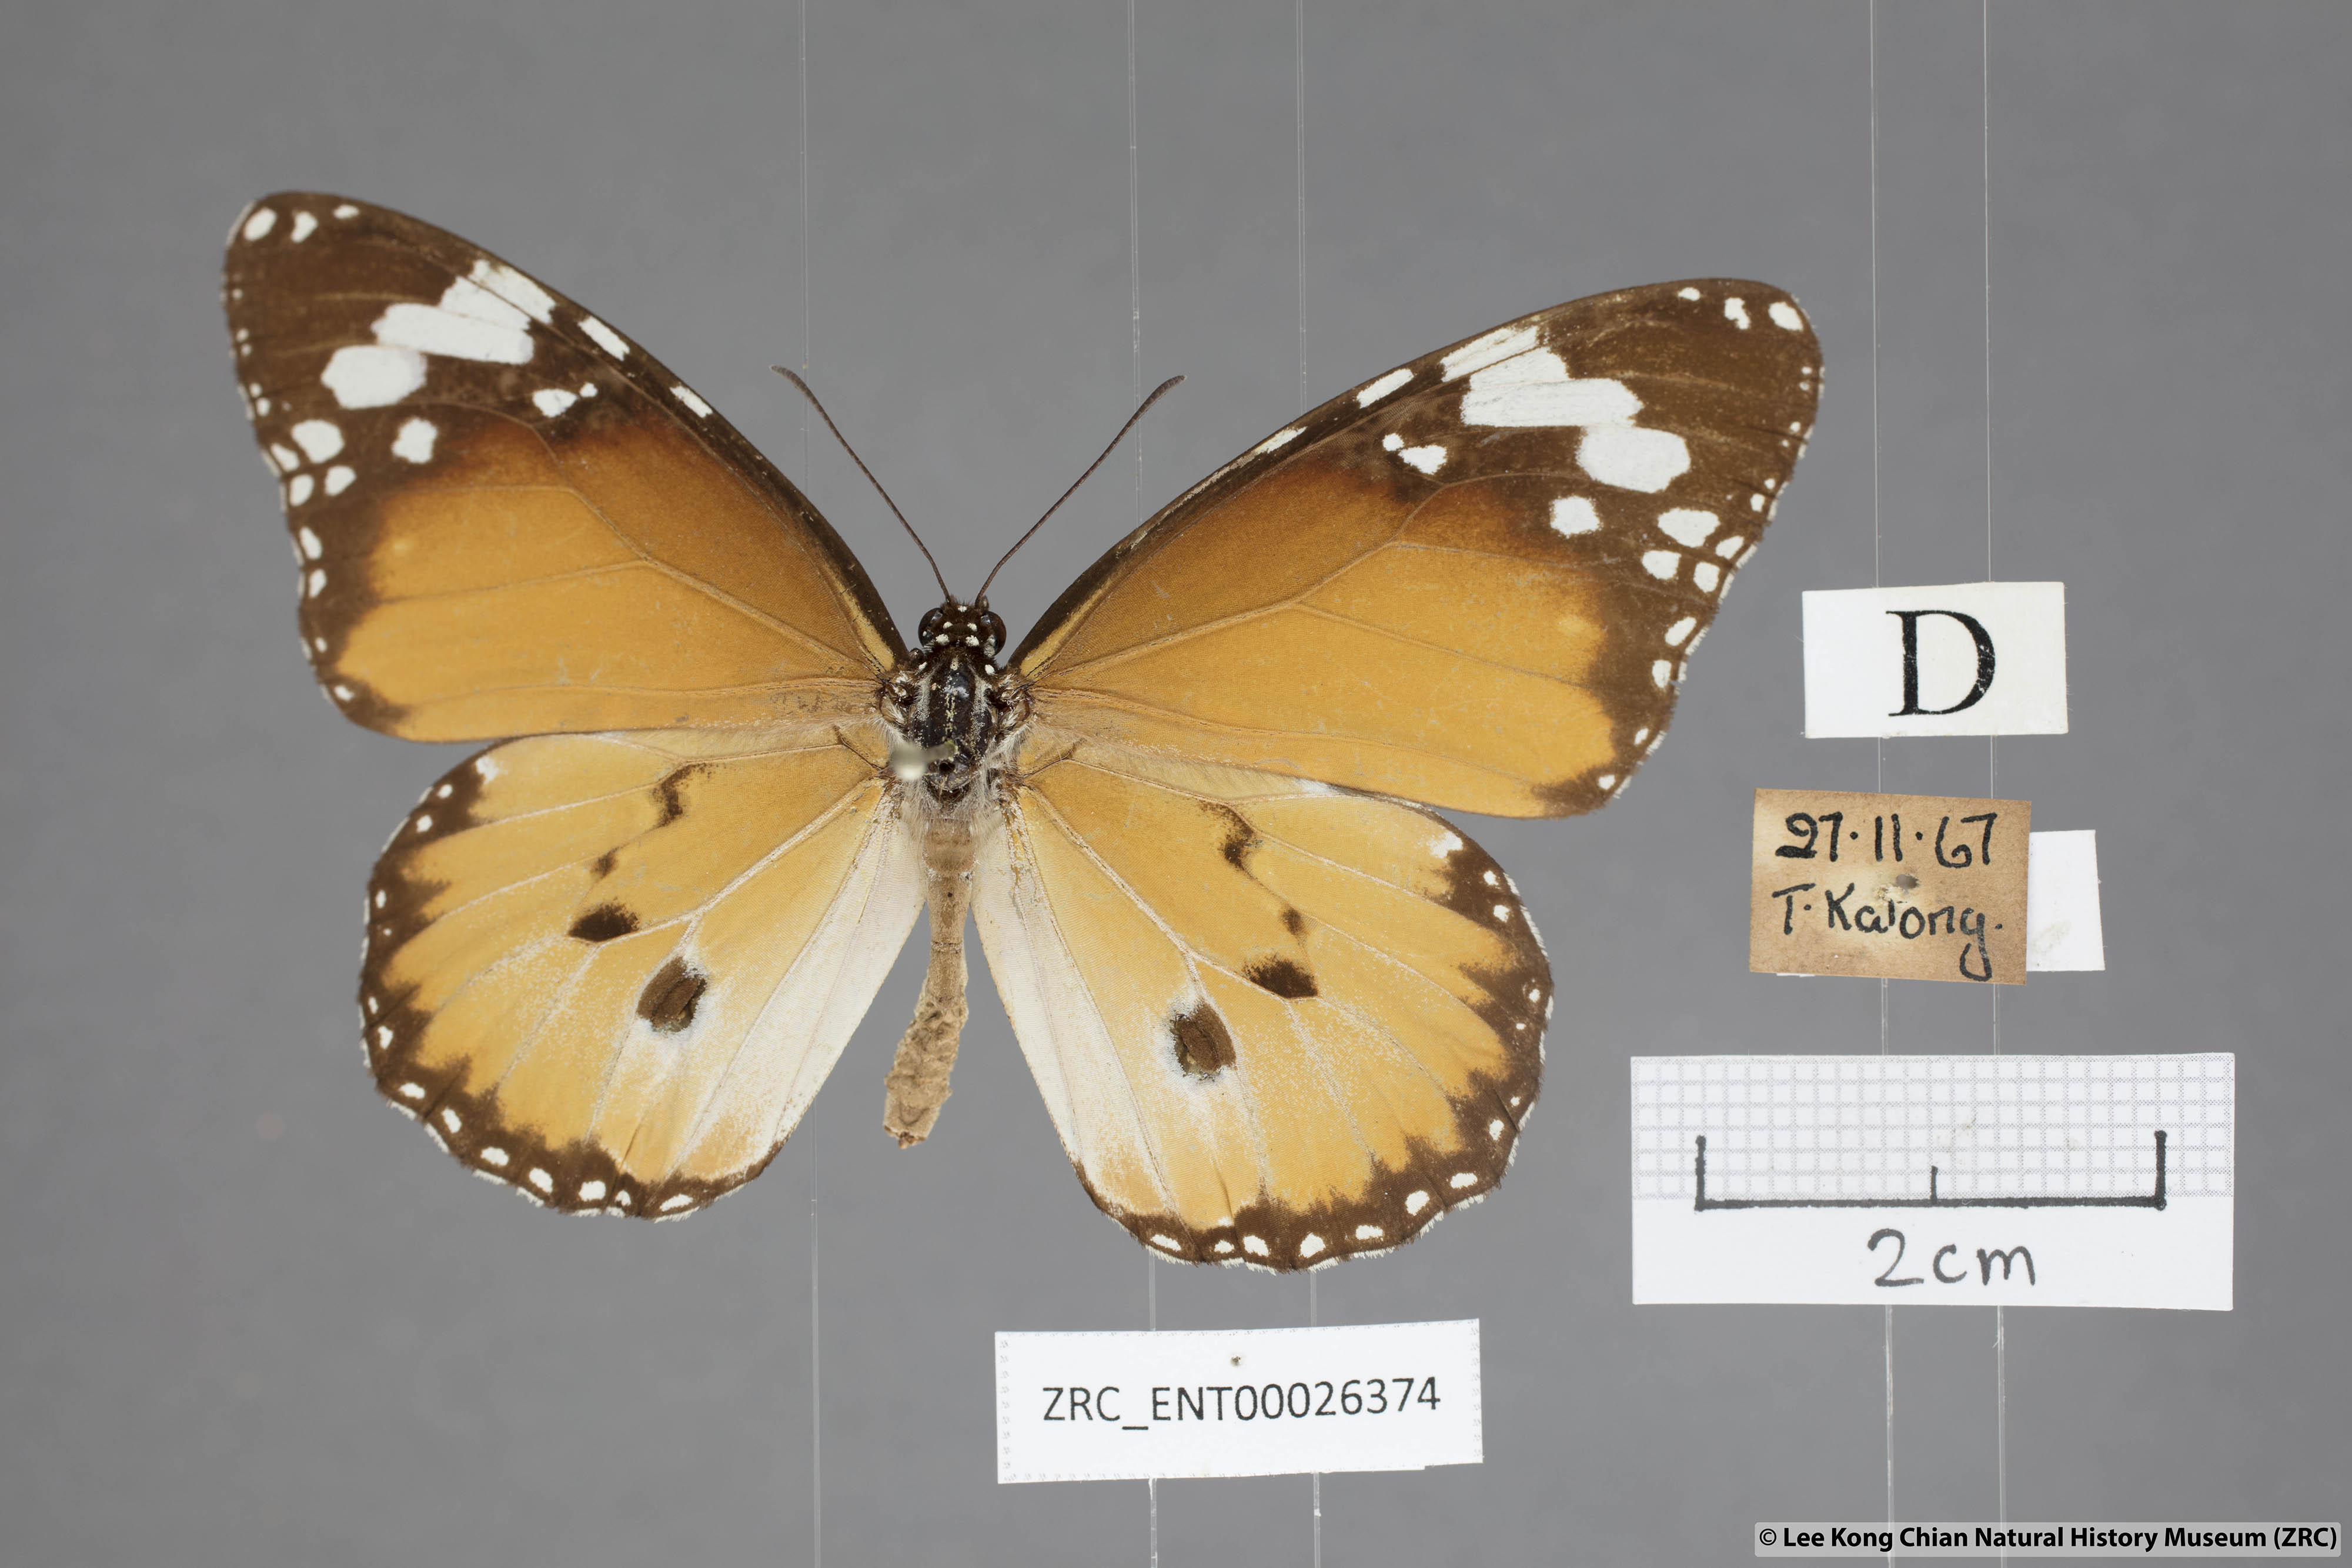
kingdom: Animalia
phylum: Arthropoda
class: Insecta
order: Lepidoptera
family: Nymphalidae
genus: Danaus
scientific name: Danaus chrysippus
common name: Plain tiger
